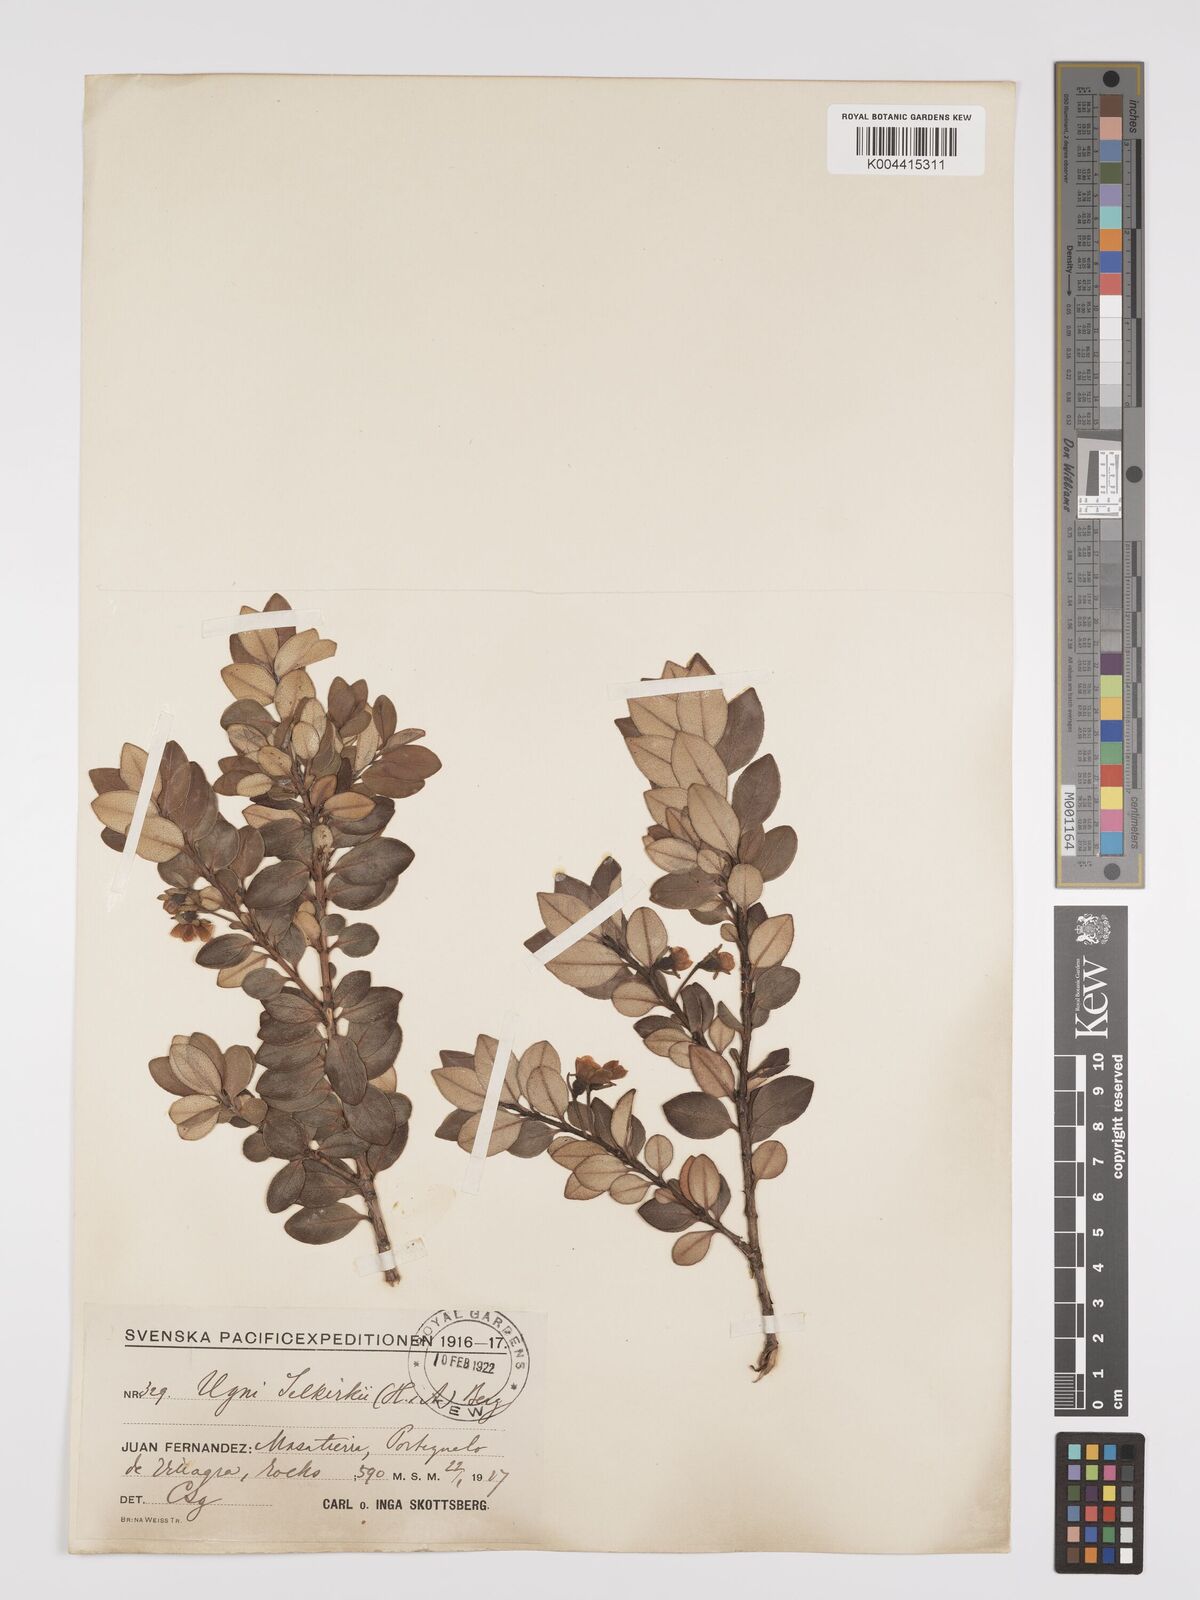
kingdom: Plantae
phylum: Tracheophyta
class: Magnoliopsida
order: Myrtales
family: Myrtaceae
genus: Ugni
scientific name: Ugni selkirkii
